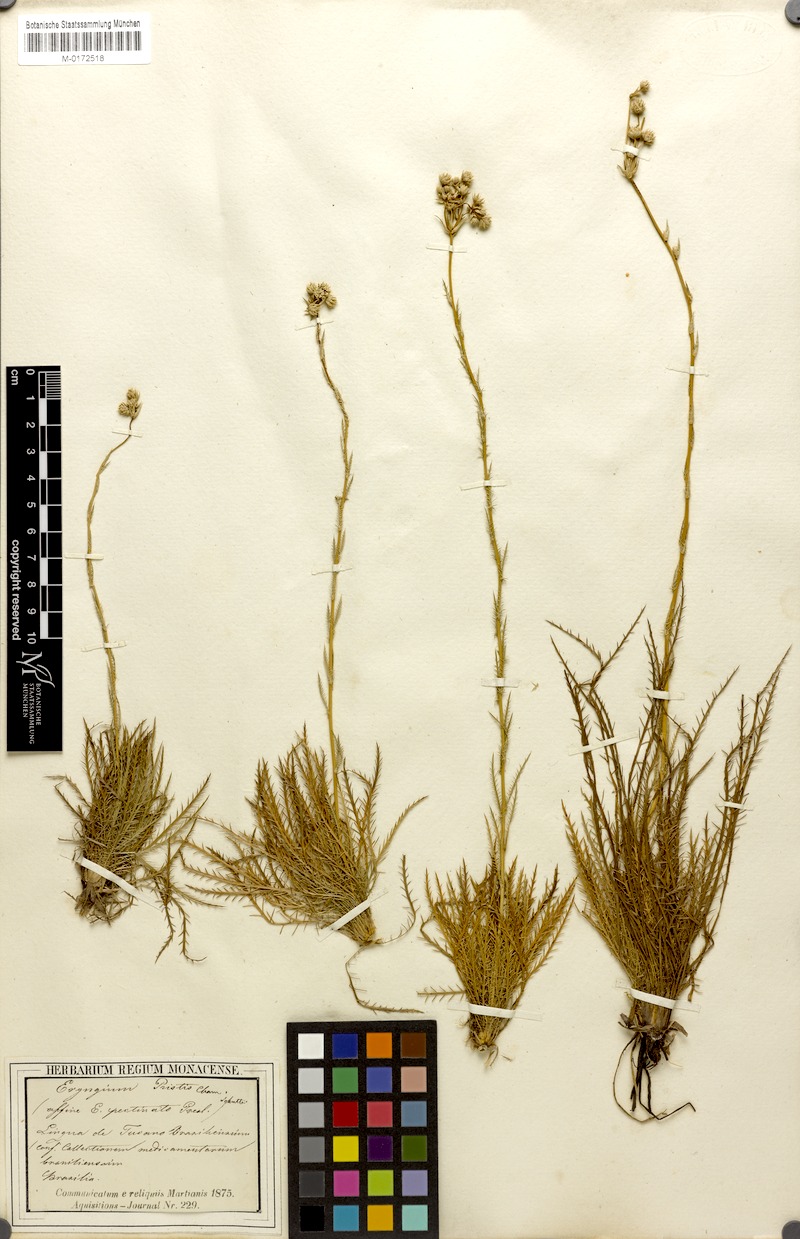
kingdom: Plantae
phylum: Tracheophyta
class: Magnoliopsida
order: Apiales
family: Apiaceae
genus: Eryngium
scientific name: Eryngium pristis
